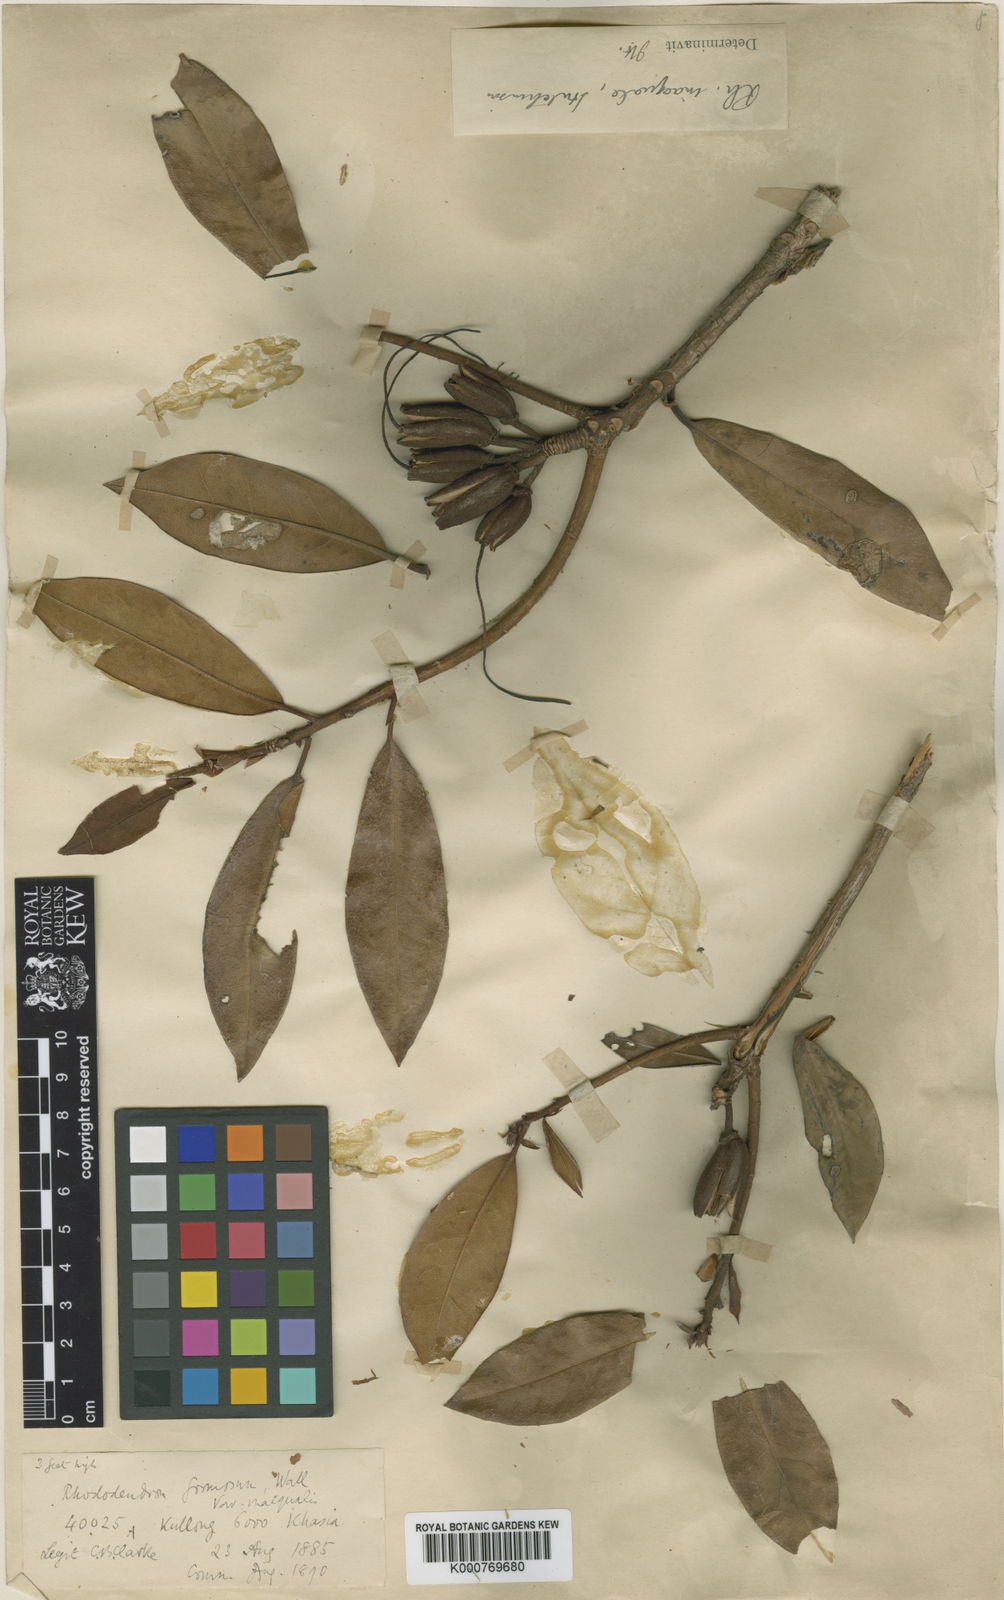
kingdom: Plantae
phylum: Tracheophyta
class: Magnoliopsida
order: Ericales
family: Ericaceae
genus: Rhododendron
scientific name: Rhododendron formosum
